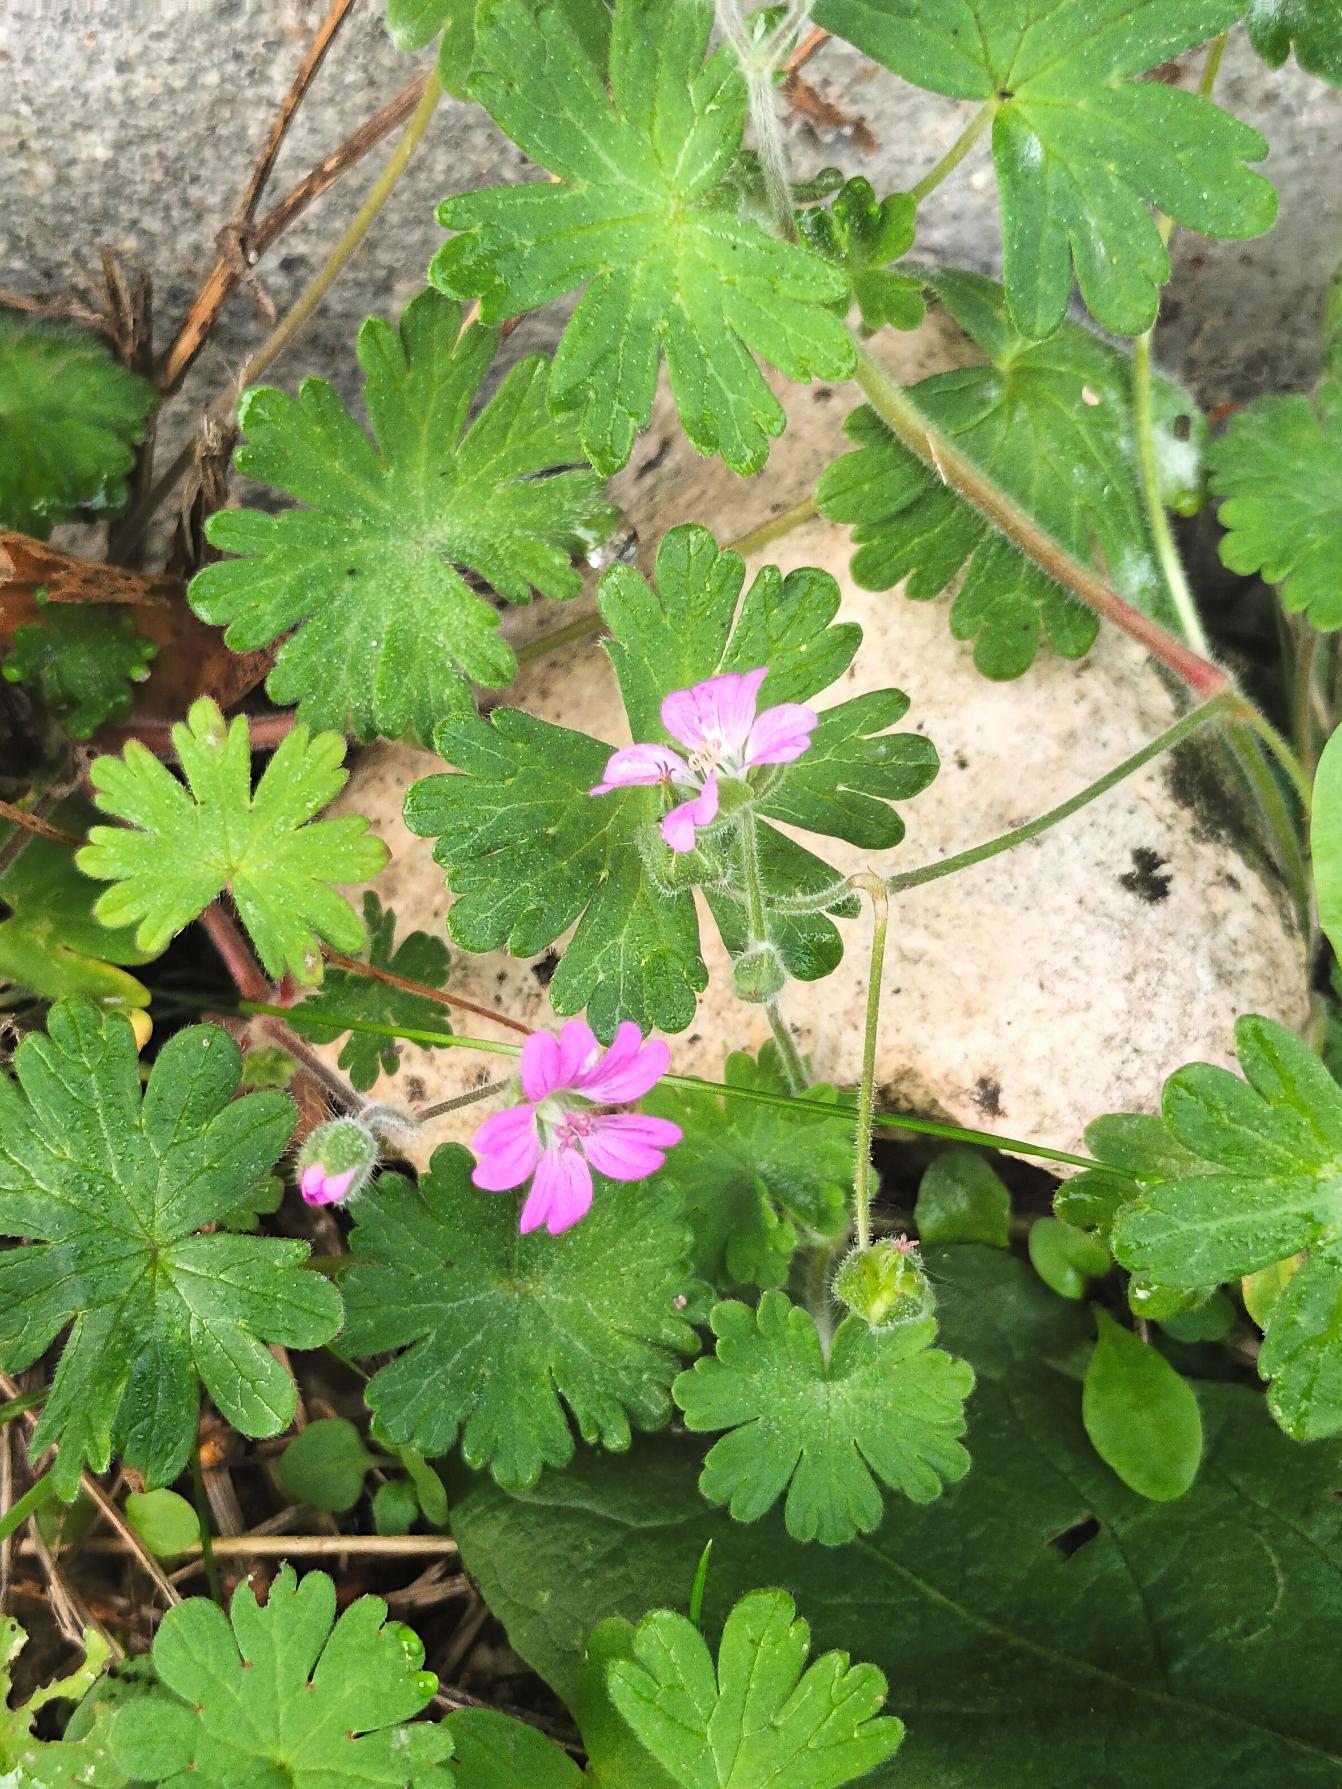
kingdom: Plantae
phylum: Tracheophyta
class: Magnoliopsida
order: Geraniales
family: Geraniaceae
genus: Geranium
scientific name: Geranium molle
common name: Blød storkenæb
